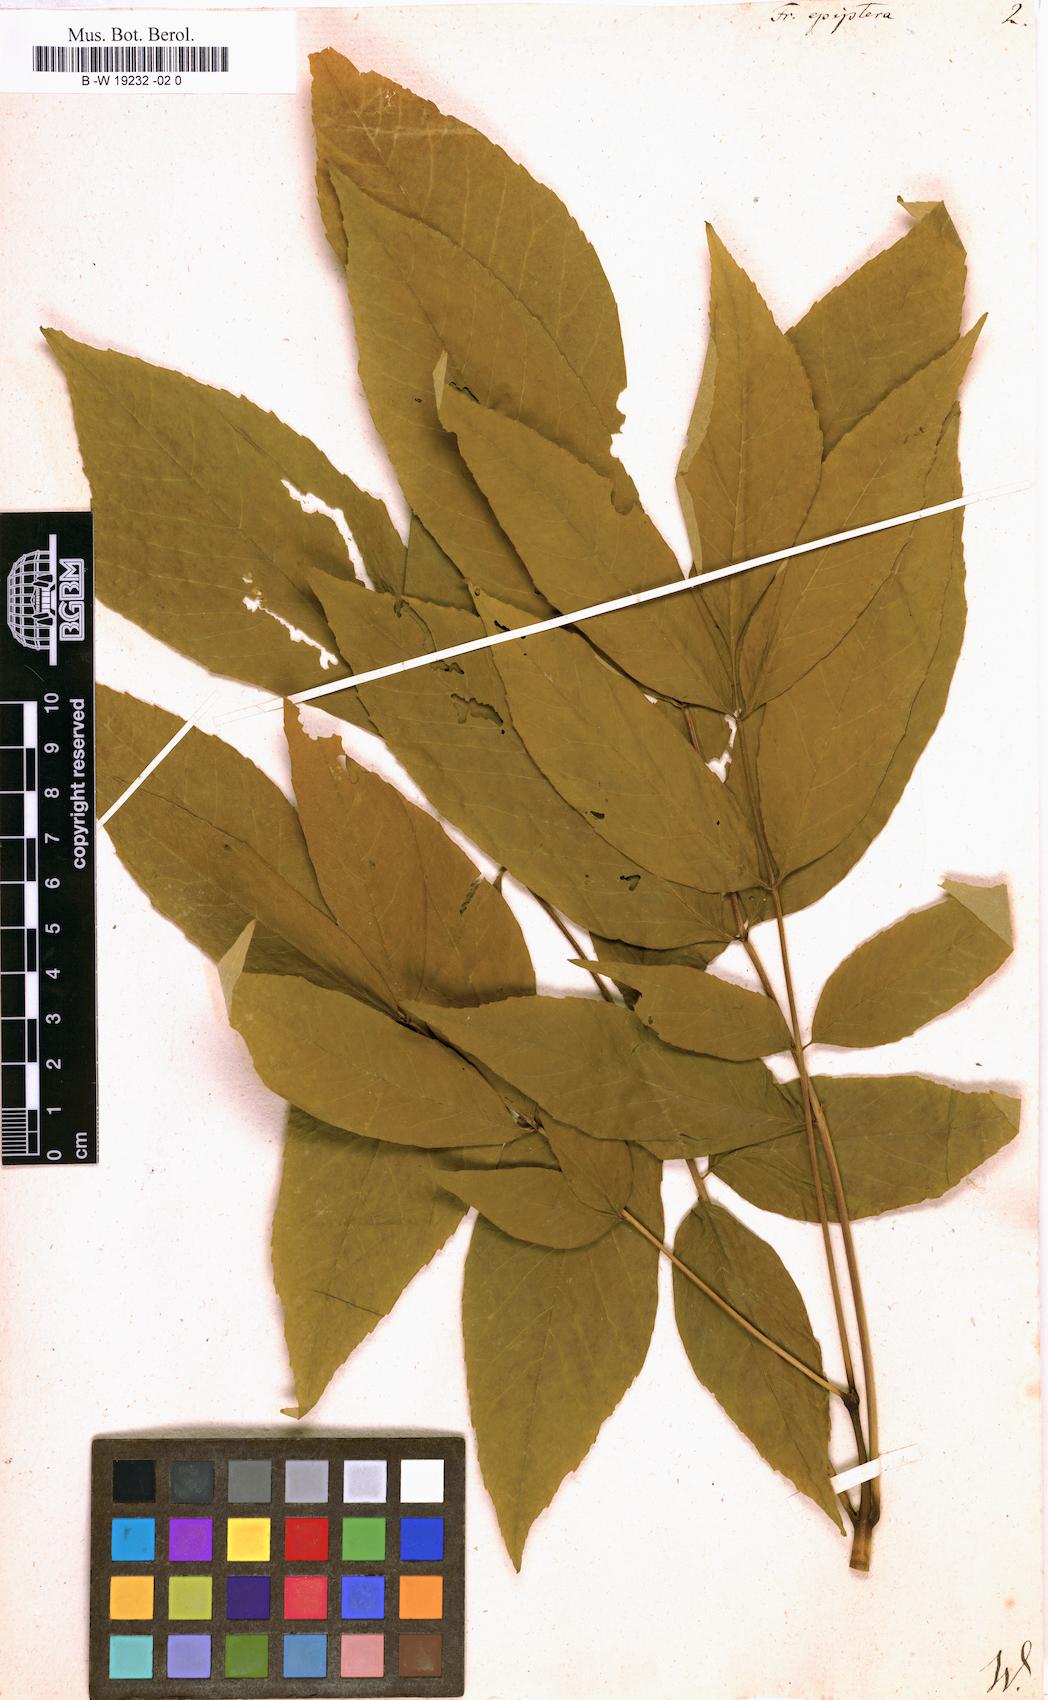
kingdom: Plantae
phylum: Tracheophyta
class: Magnoliopsida
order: Lamiales
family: Oleaceae
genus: Fraxinus
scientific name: Fraxinus americana
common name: White ash
